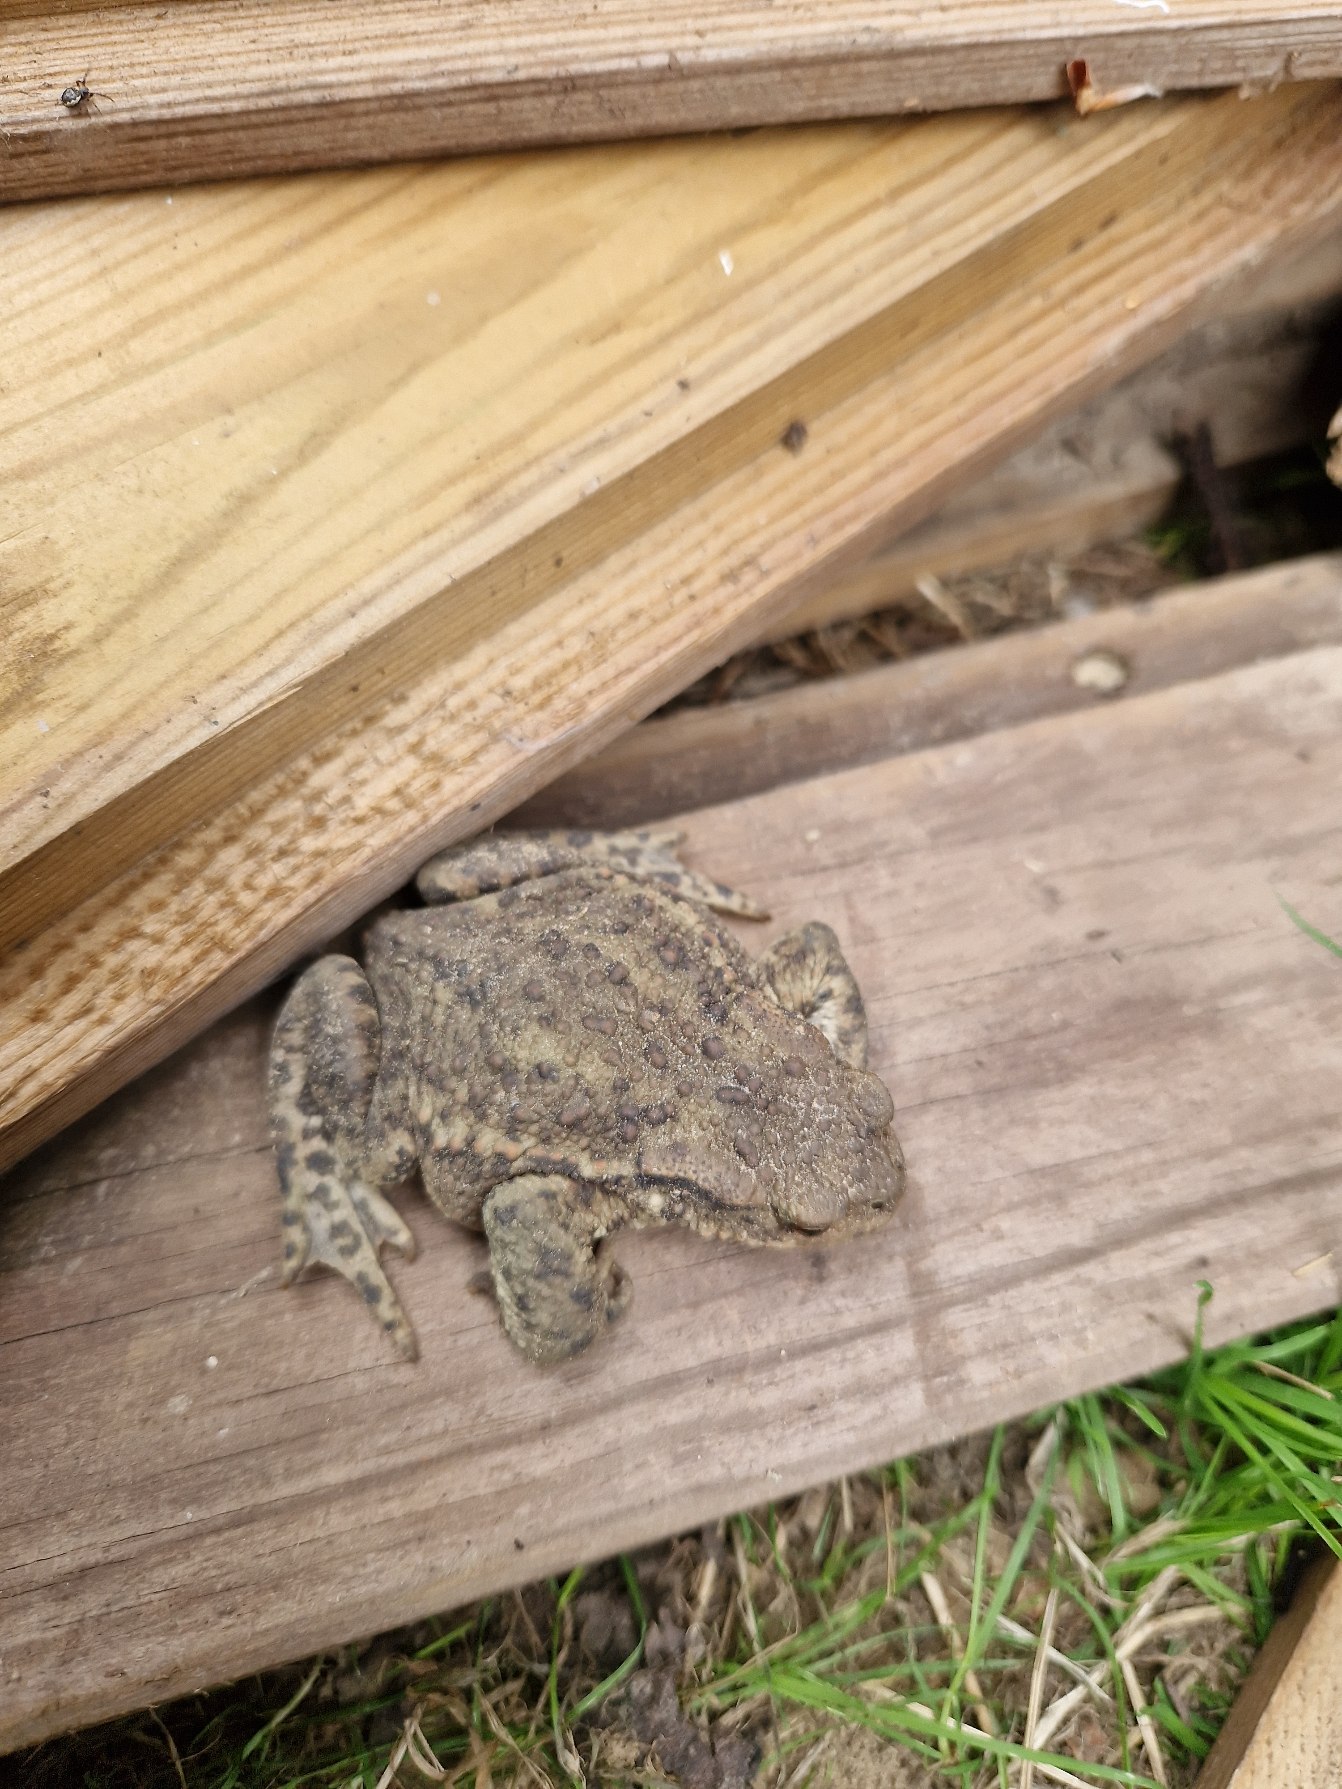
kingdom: Animalia
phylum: Chordata
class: Amphibia
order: Anura
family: Bufonidae
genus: Bufo
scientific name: Bufo bufo
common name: Skrubtudse
